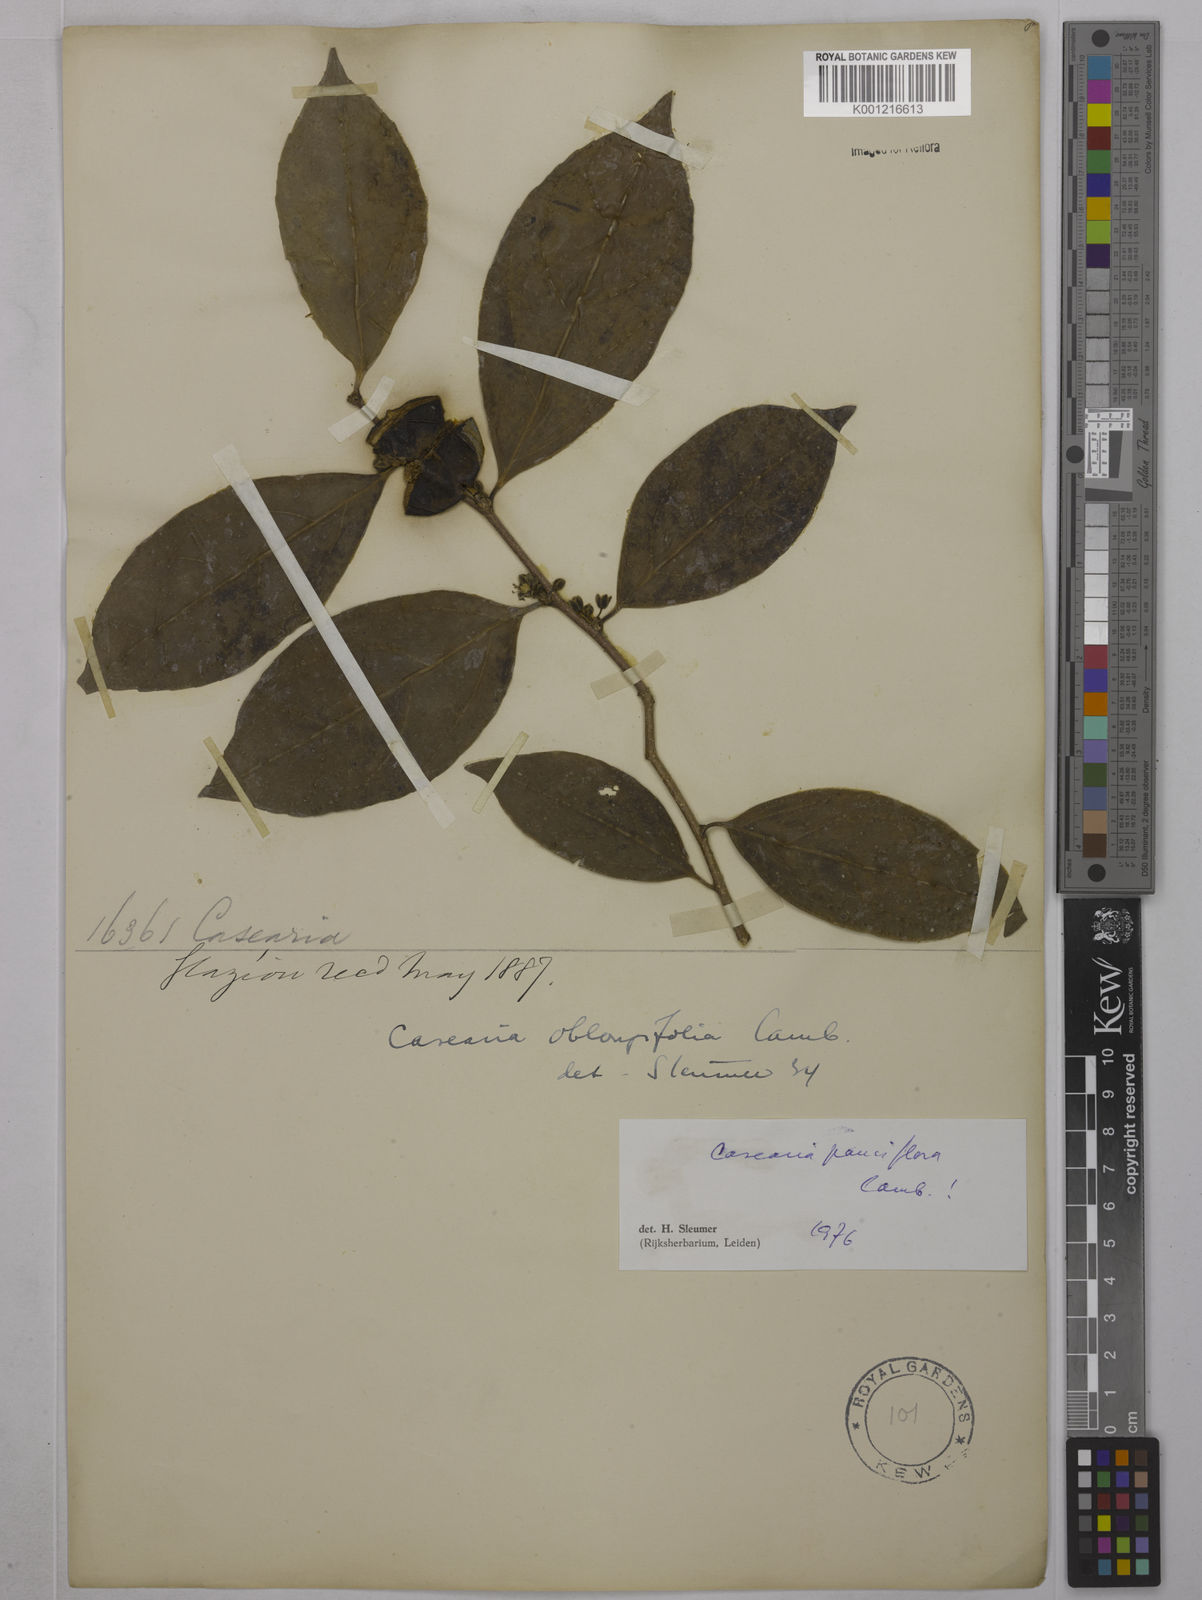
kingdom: Plantae
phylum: Tracheophyta
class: Magnoliopsida
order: Malpighiales
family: Salicaceae
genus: Casearia
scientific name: Casearia pauciflora
